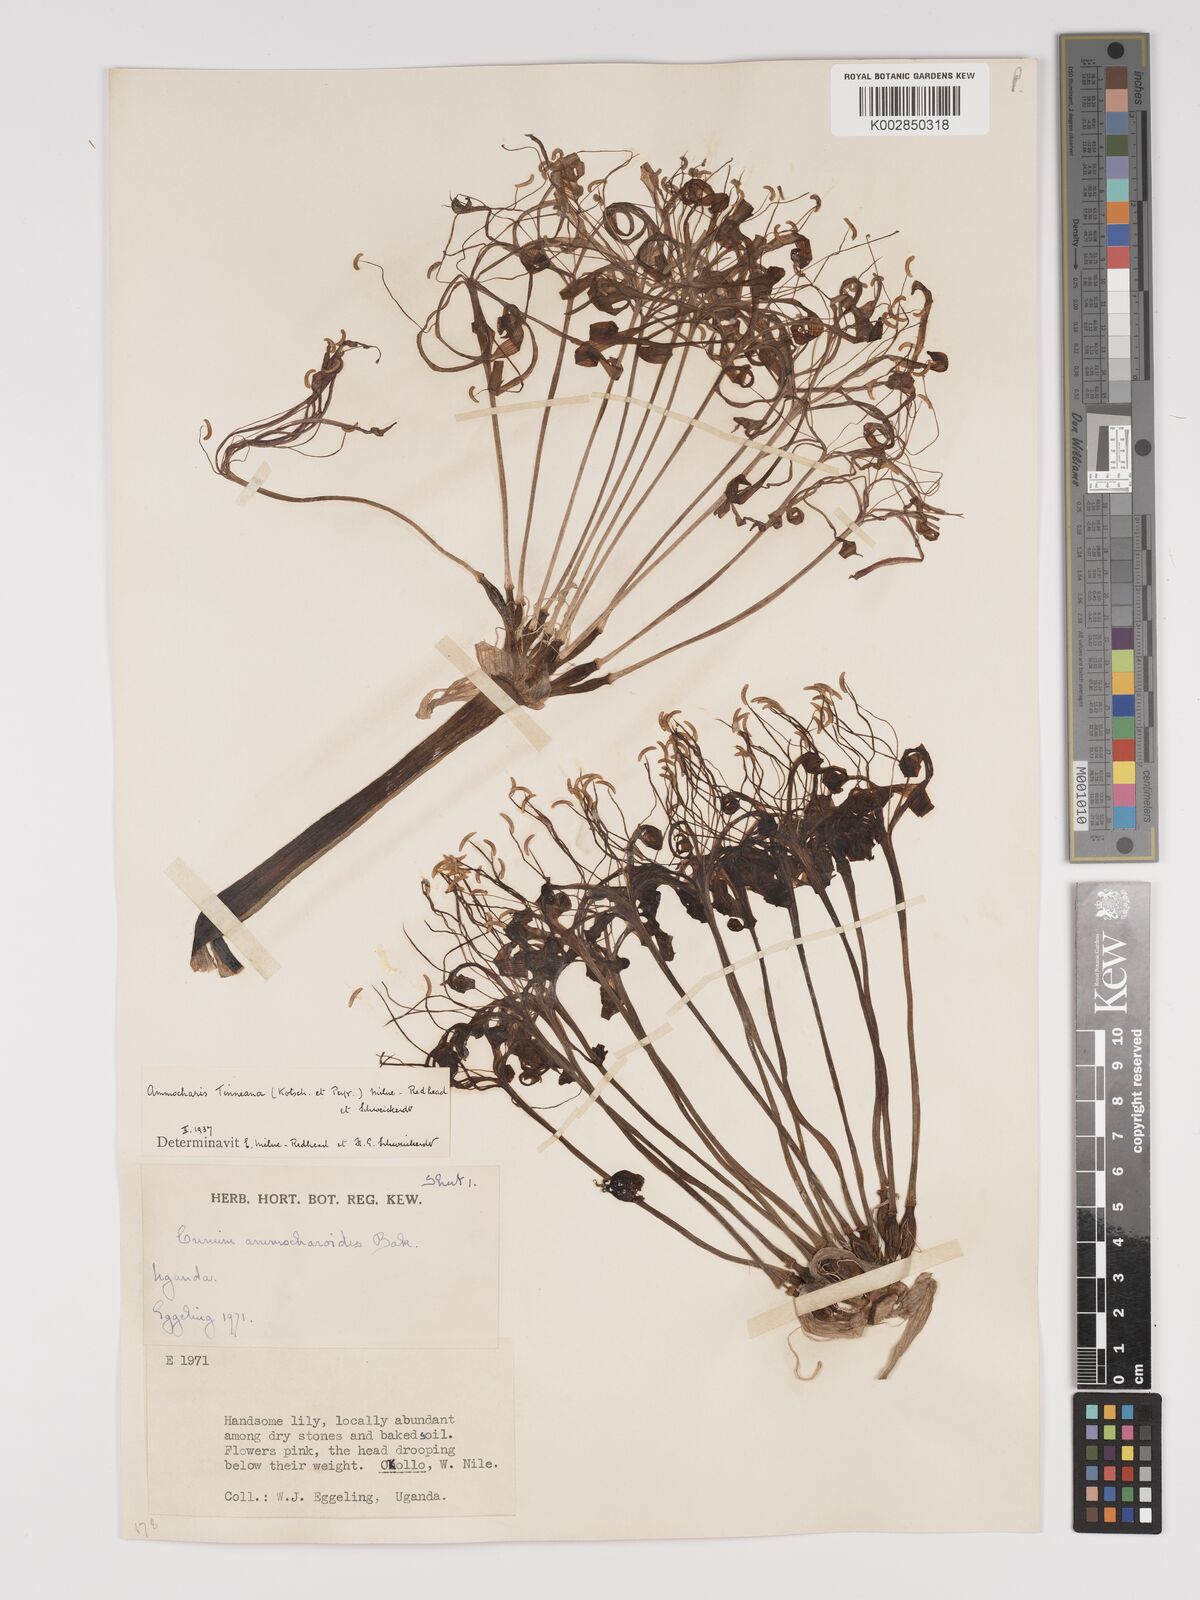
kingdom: Plantae
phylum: Tracheophyta
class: Liliopsida
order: Asparagales
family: Amaryllidaceae
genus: Ammocharis
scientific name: Ammocharis tinneana
